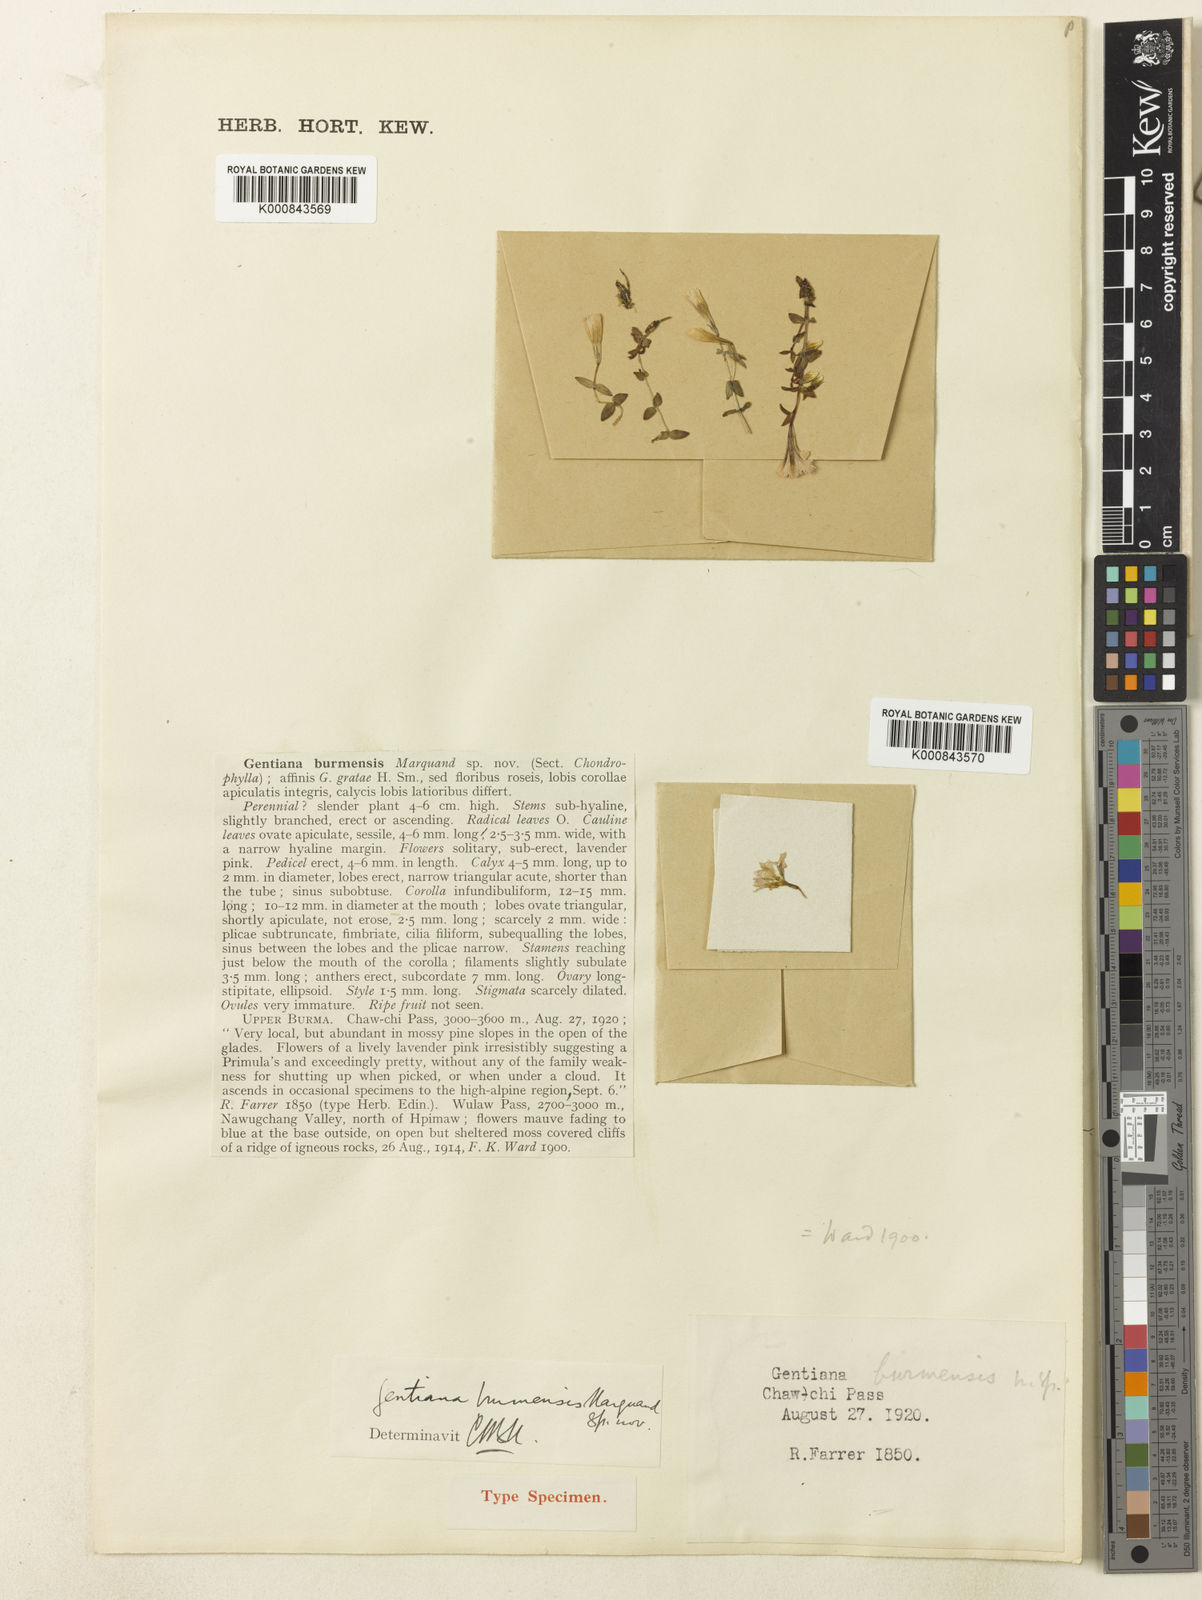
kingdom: Plantae
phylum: Tracheophyta
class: Magnoliopsida
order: Gentianales
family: Gentianaceae
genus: Gentiana
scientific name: Gentiana grata
